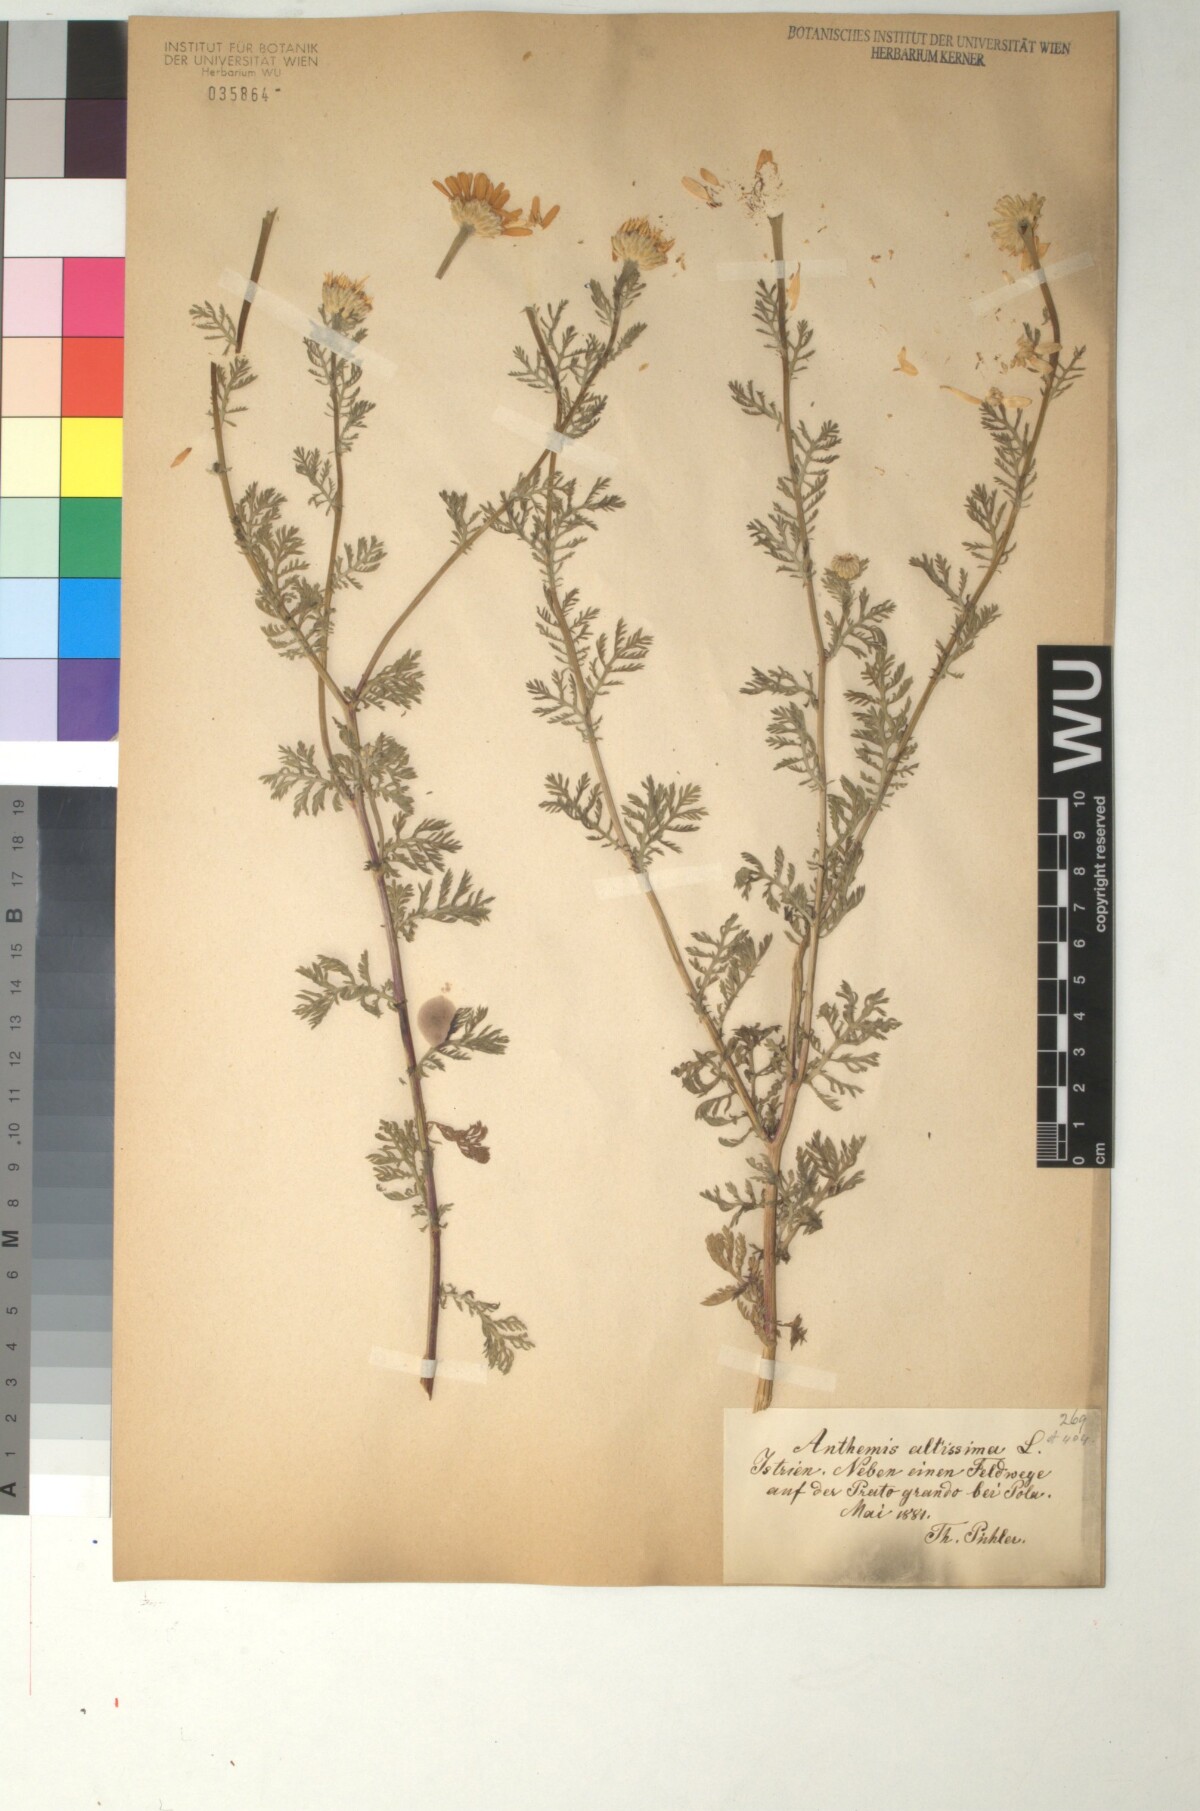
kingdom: Plantae
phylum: Tracheophyta
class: Magnoliopsida
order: Asterales
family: Asteraceae
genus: Anthemis
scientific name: Anthemis arvensis
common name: Corn chamomile
